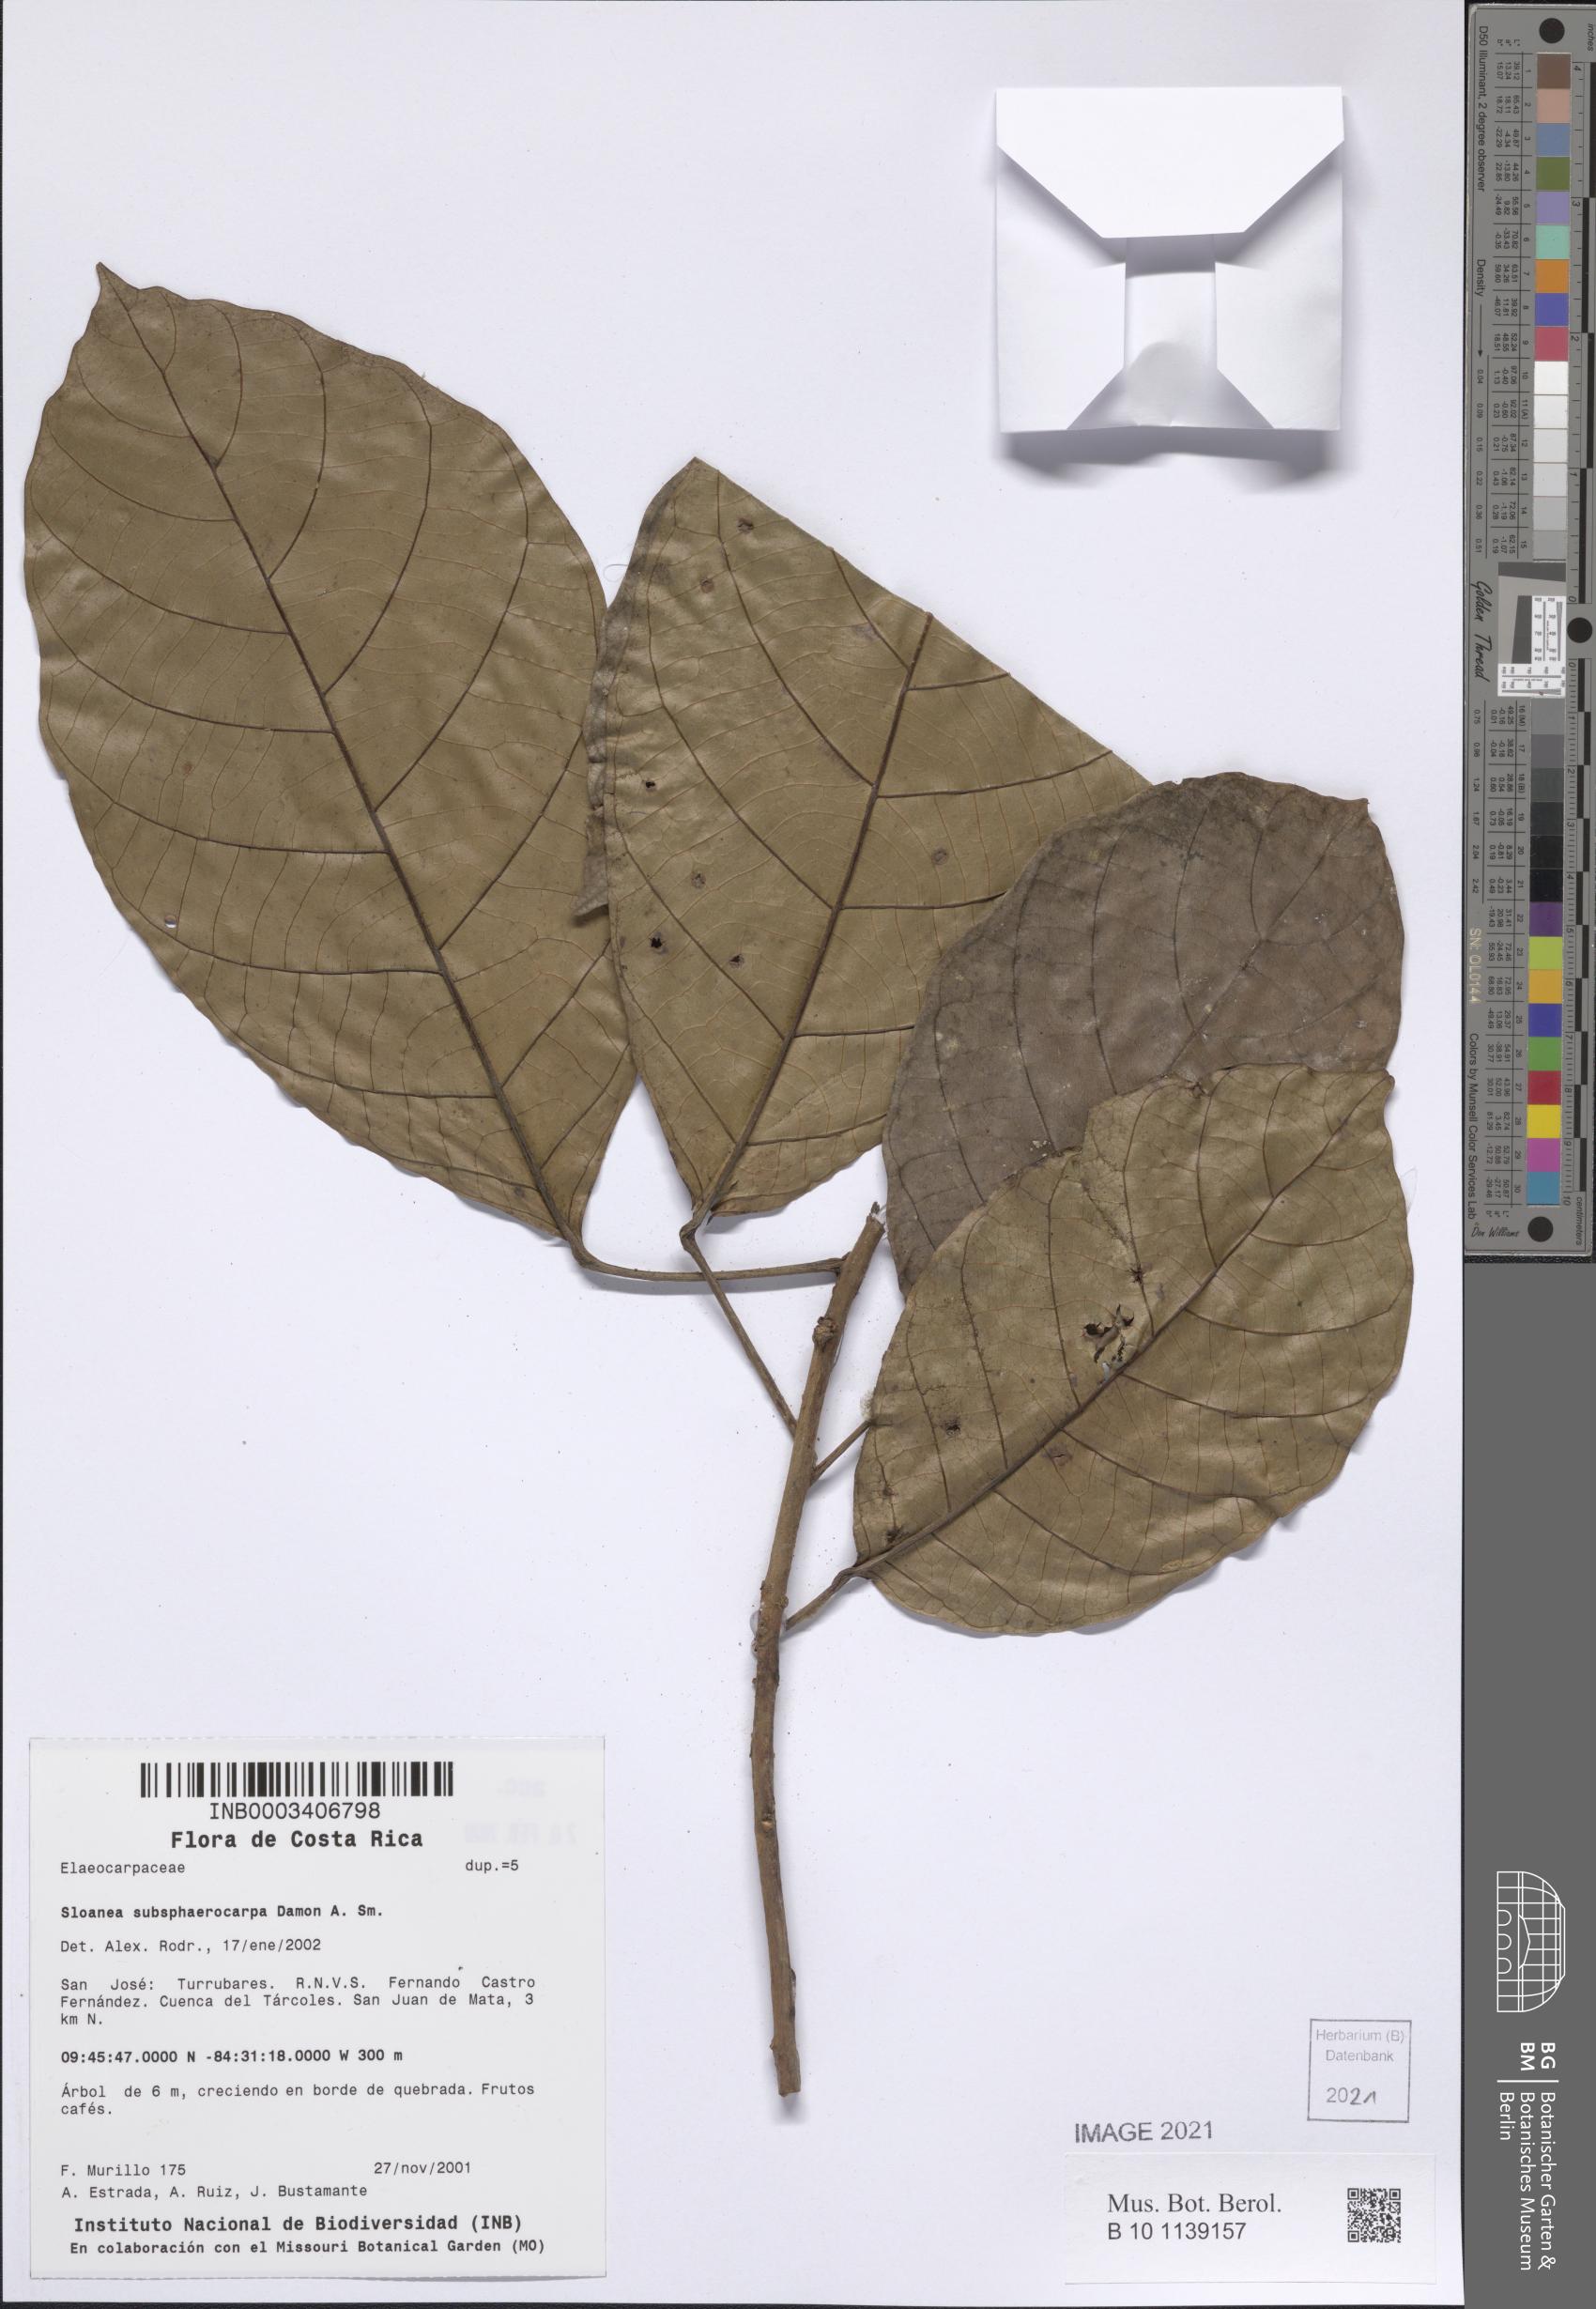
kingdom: Plantae
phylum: Tracheophyta
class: Magnoliopsida
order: Oxalidales
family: Elaeocarpaceae
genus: Sloanea
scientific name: Sloanea
